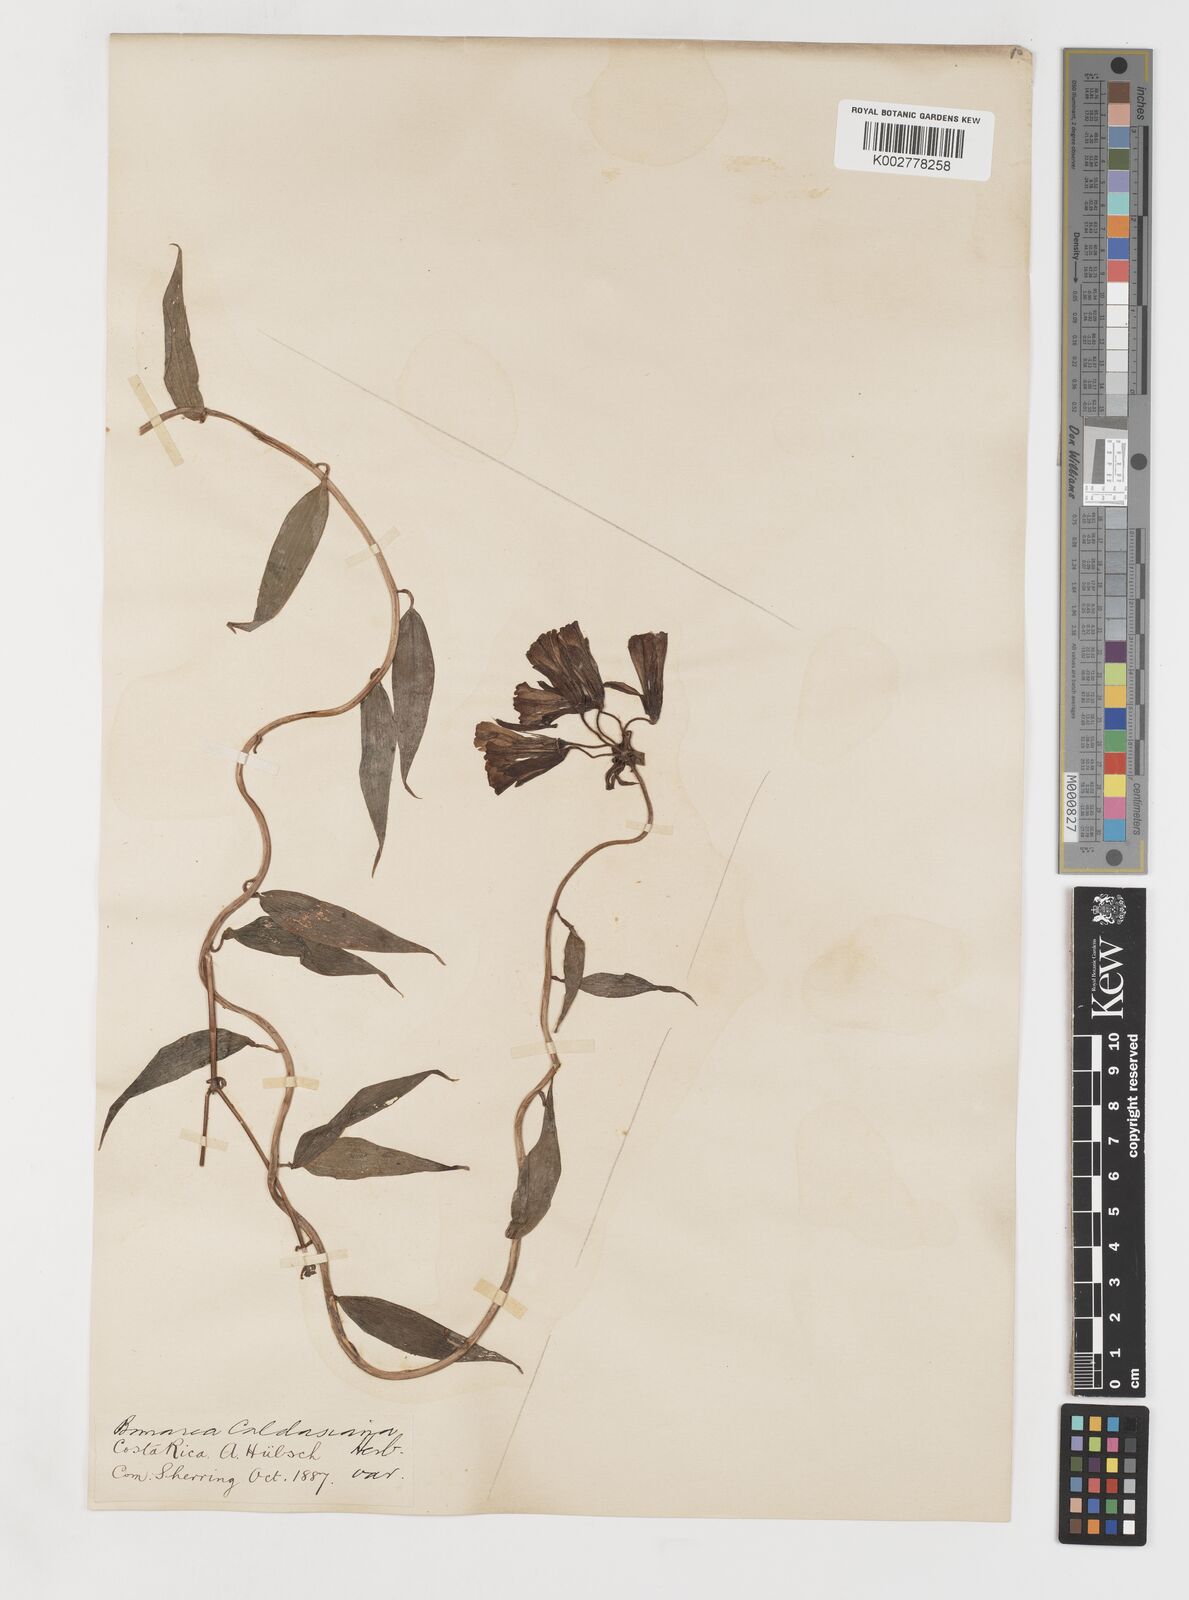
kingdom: Plantae
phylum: Tracheophyta
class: Liliopsida
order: Liliales
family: Alstroemeriaceae
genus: Bomarea
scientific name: Bomarea acutifolia
